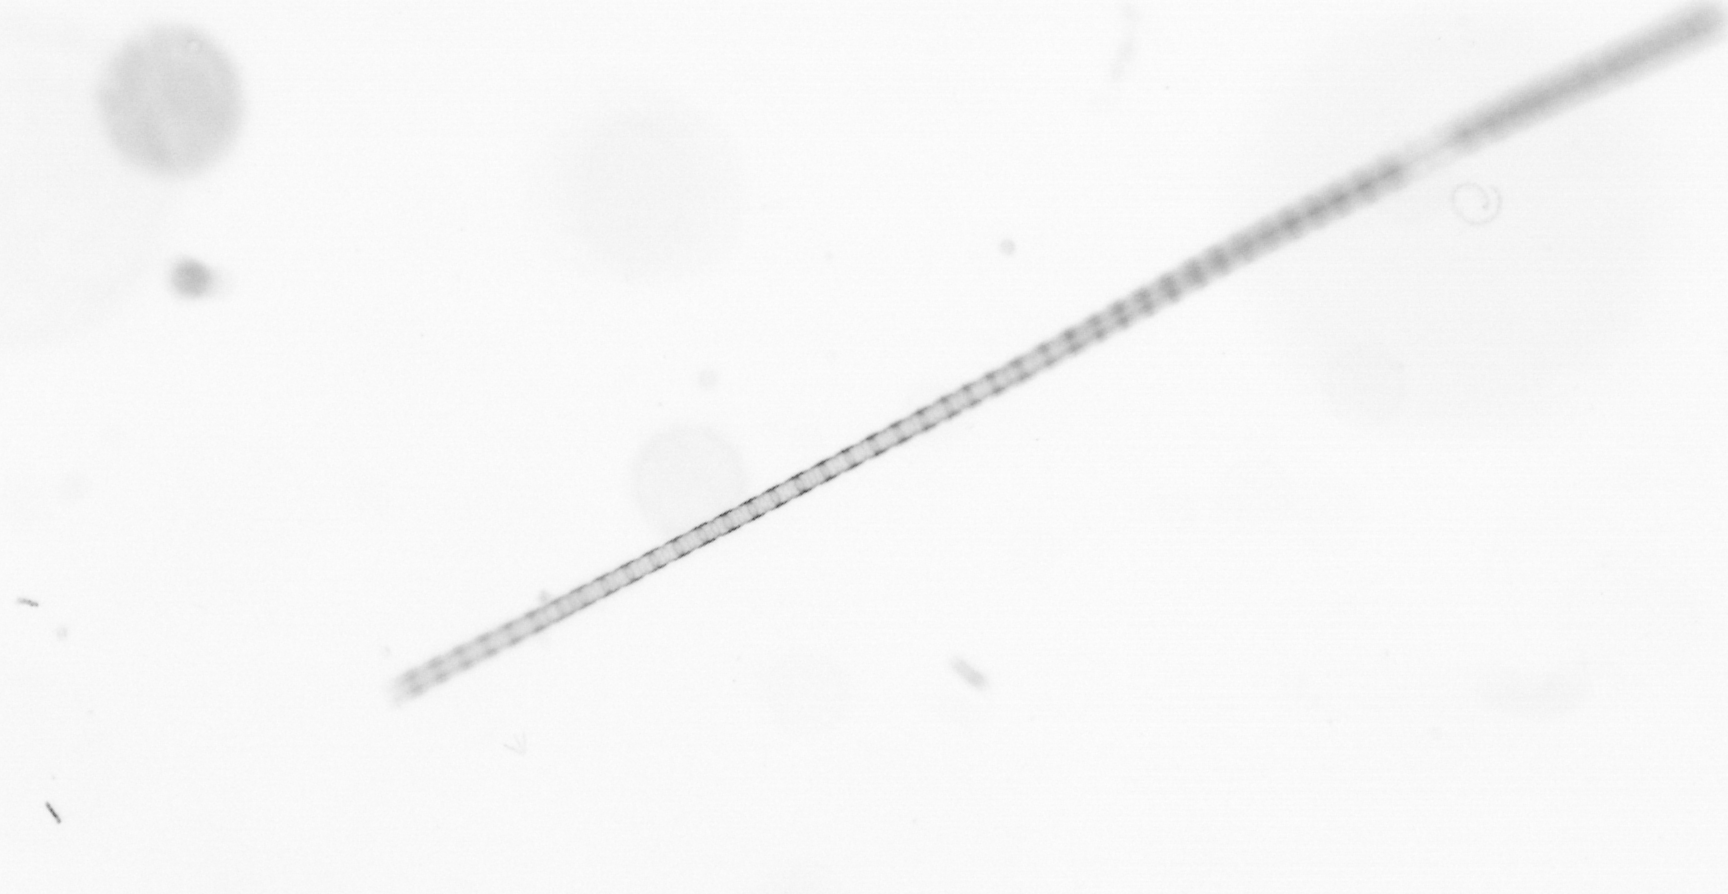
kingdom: Chromista
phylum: Ochrophyta
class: Bacillariophyceae
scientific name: Bacillariophyceae
